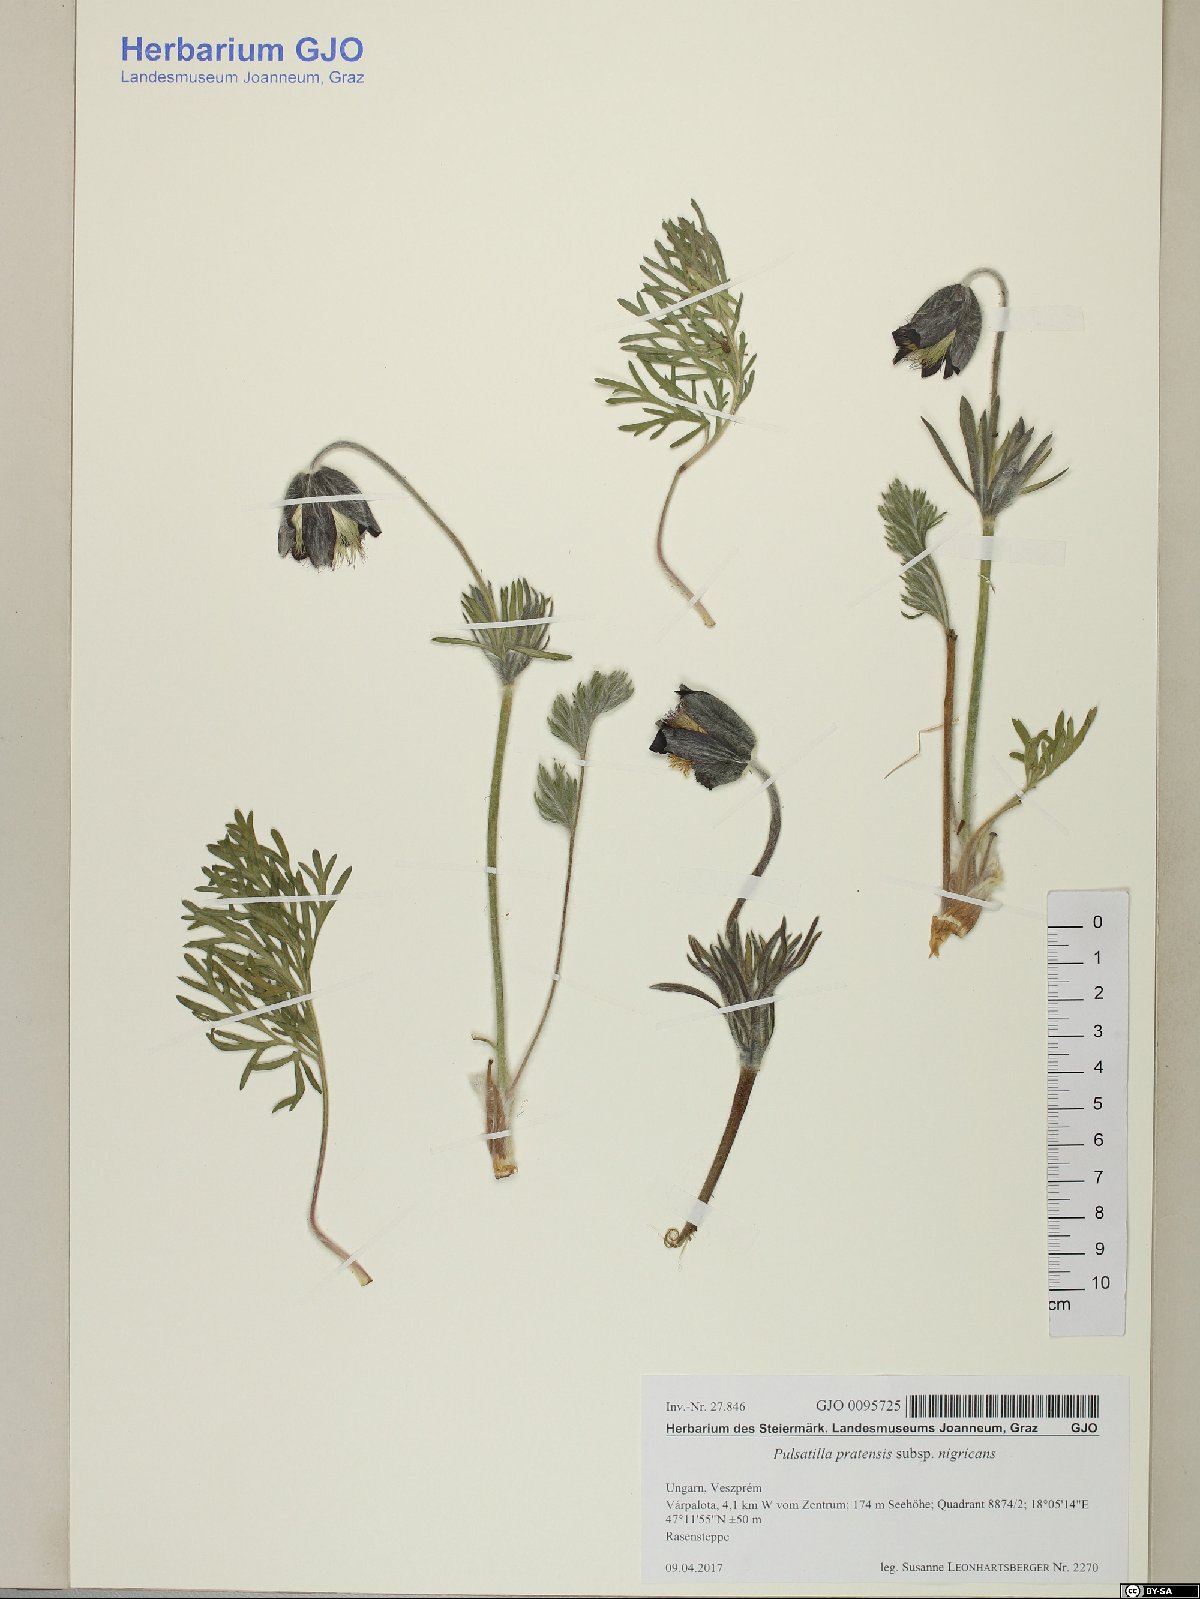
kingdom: Plantae
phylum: Tracheophyta
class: Magnoliopsida
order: Ranunculales
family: Ranunculaceae
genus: Pulsatilla
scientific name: Pulsatilla pratensis
